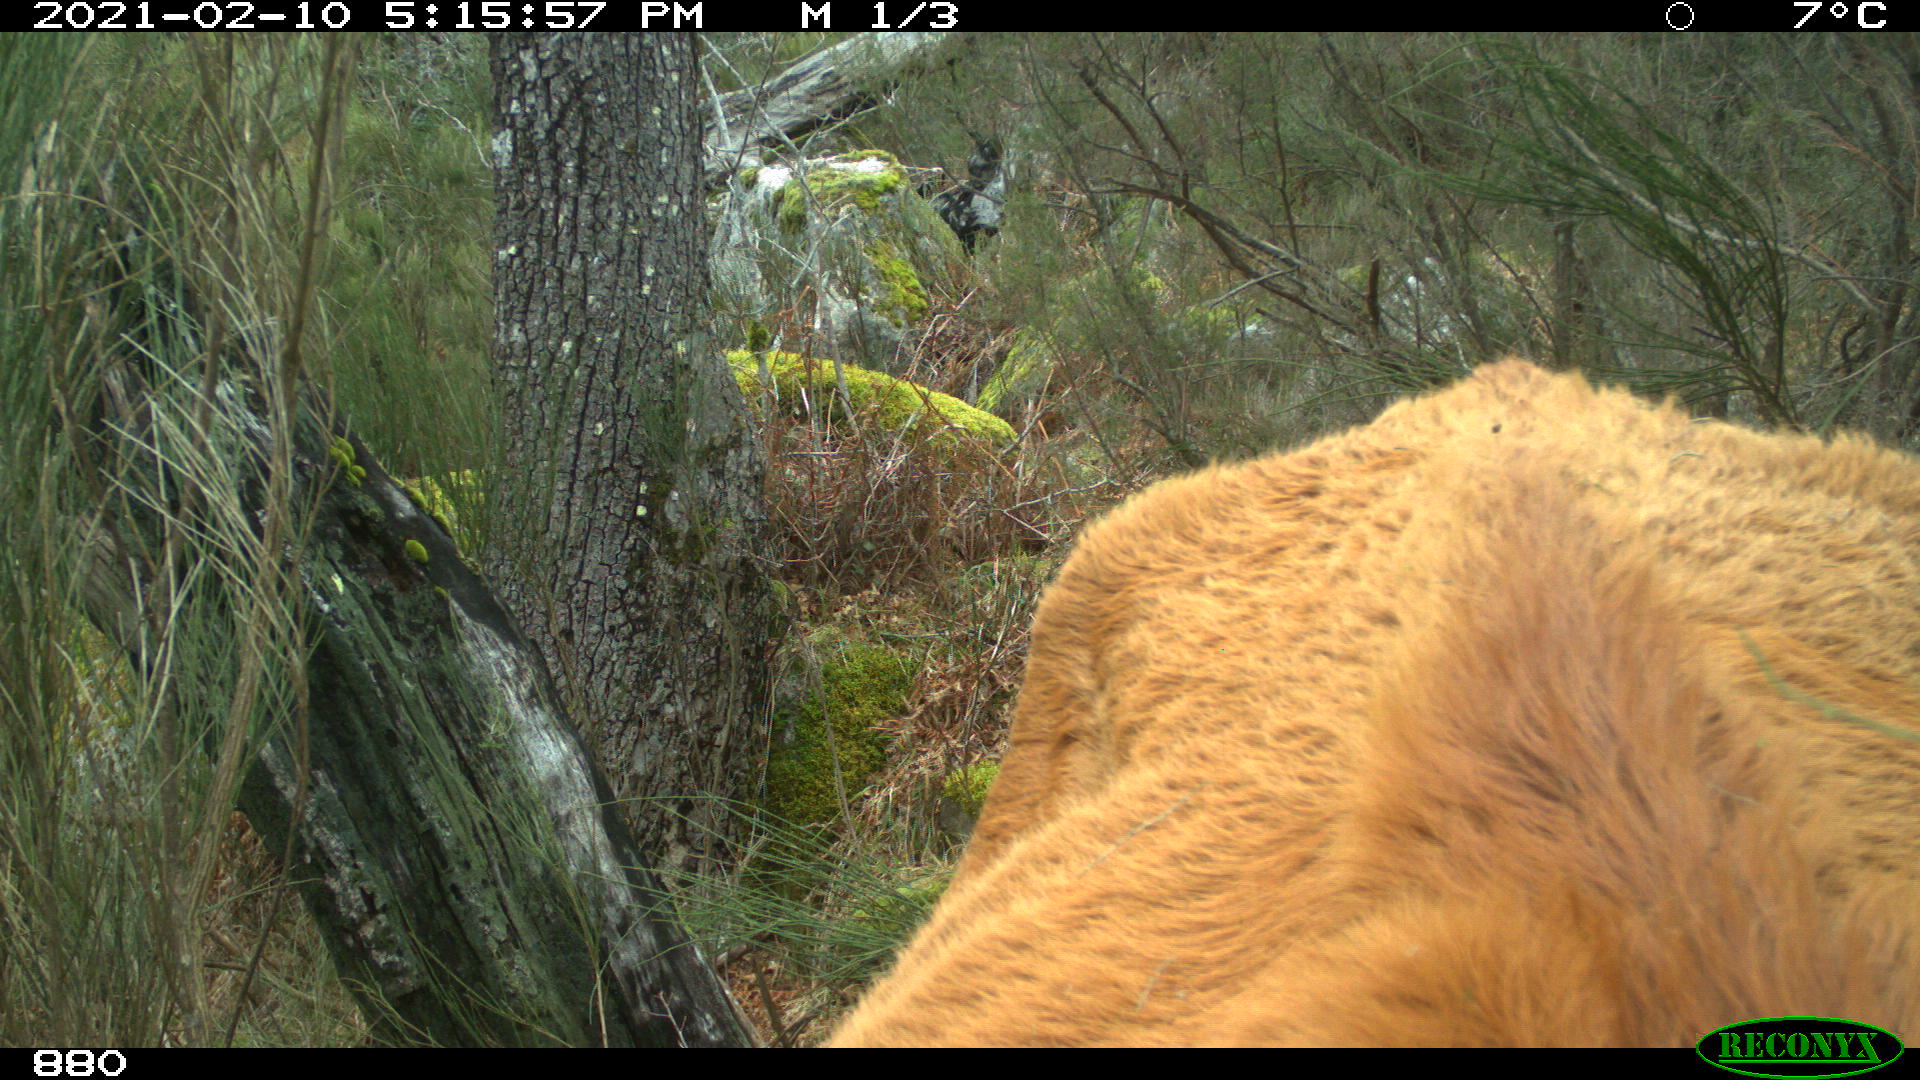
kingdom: Animalia
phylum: Chordata
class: Mammalia
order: Artiodactyla
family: Bovidae
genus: Bos
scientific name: Bos taurus
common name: Domesticated cattle
